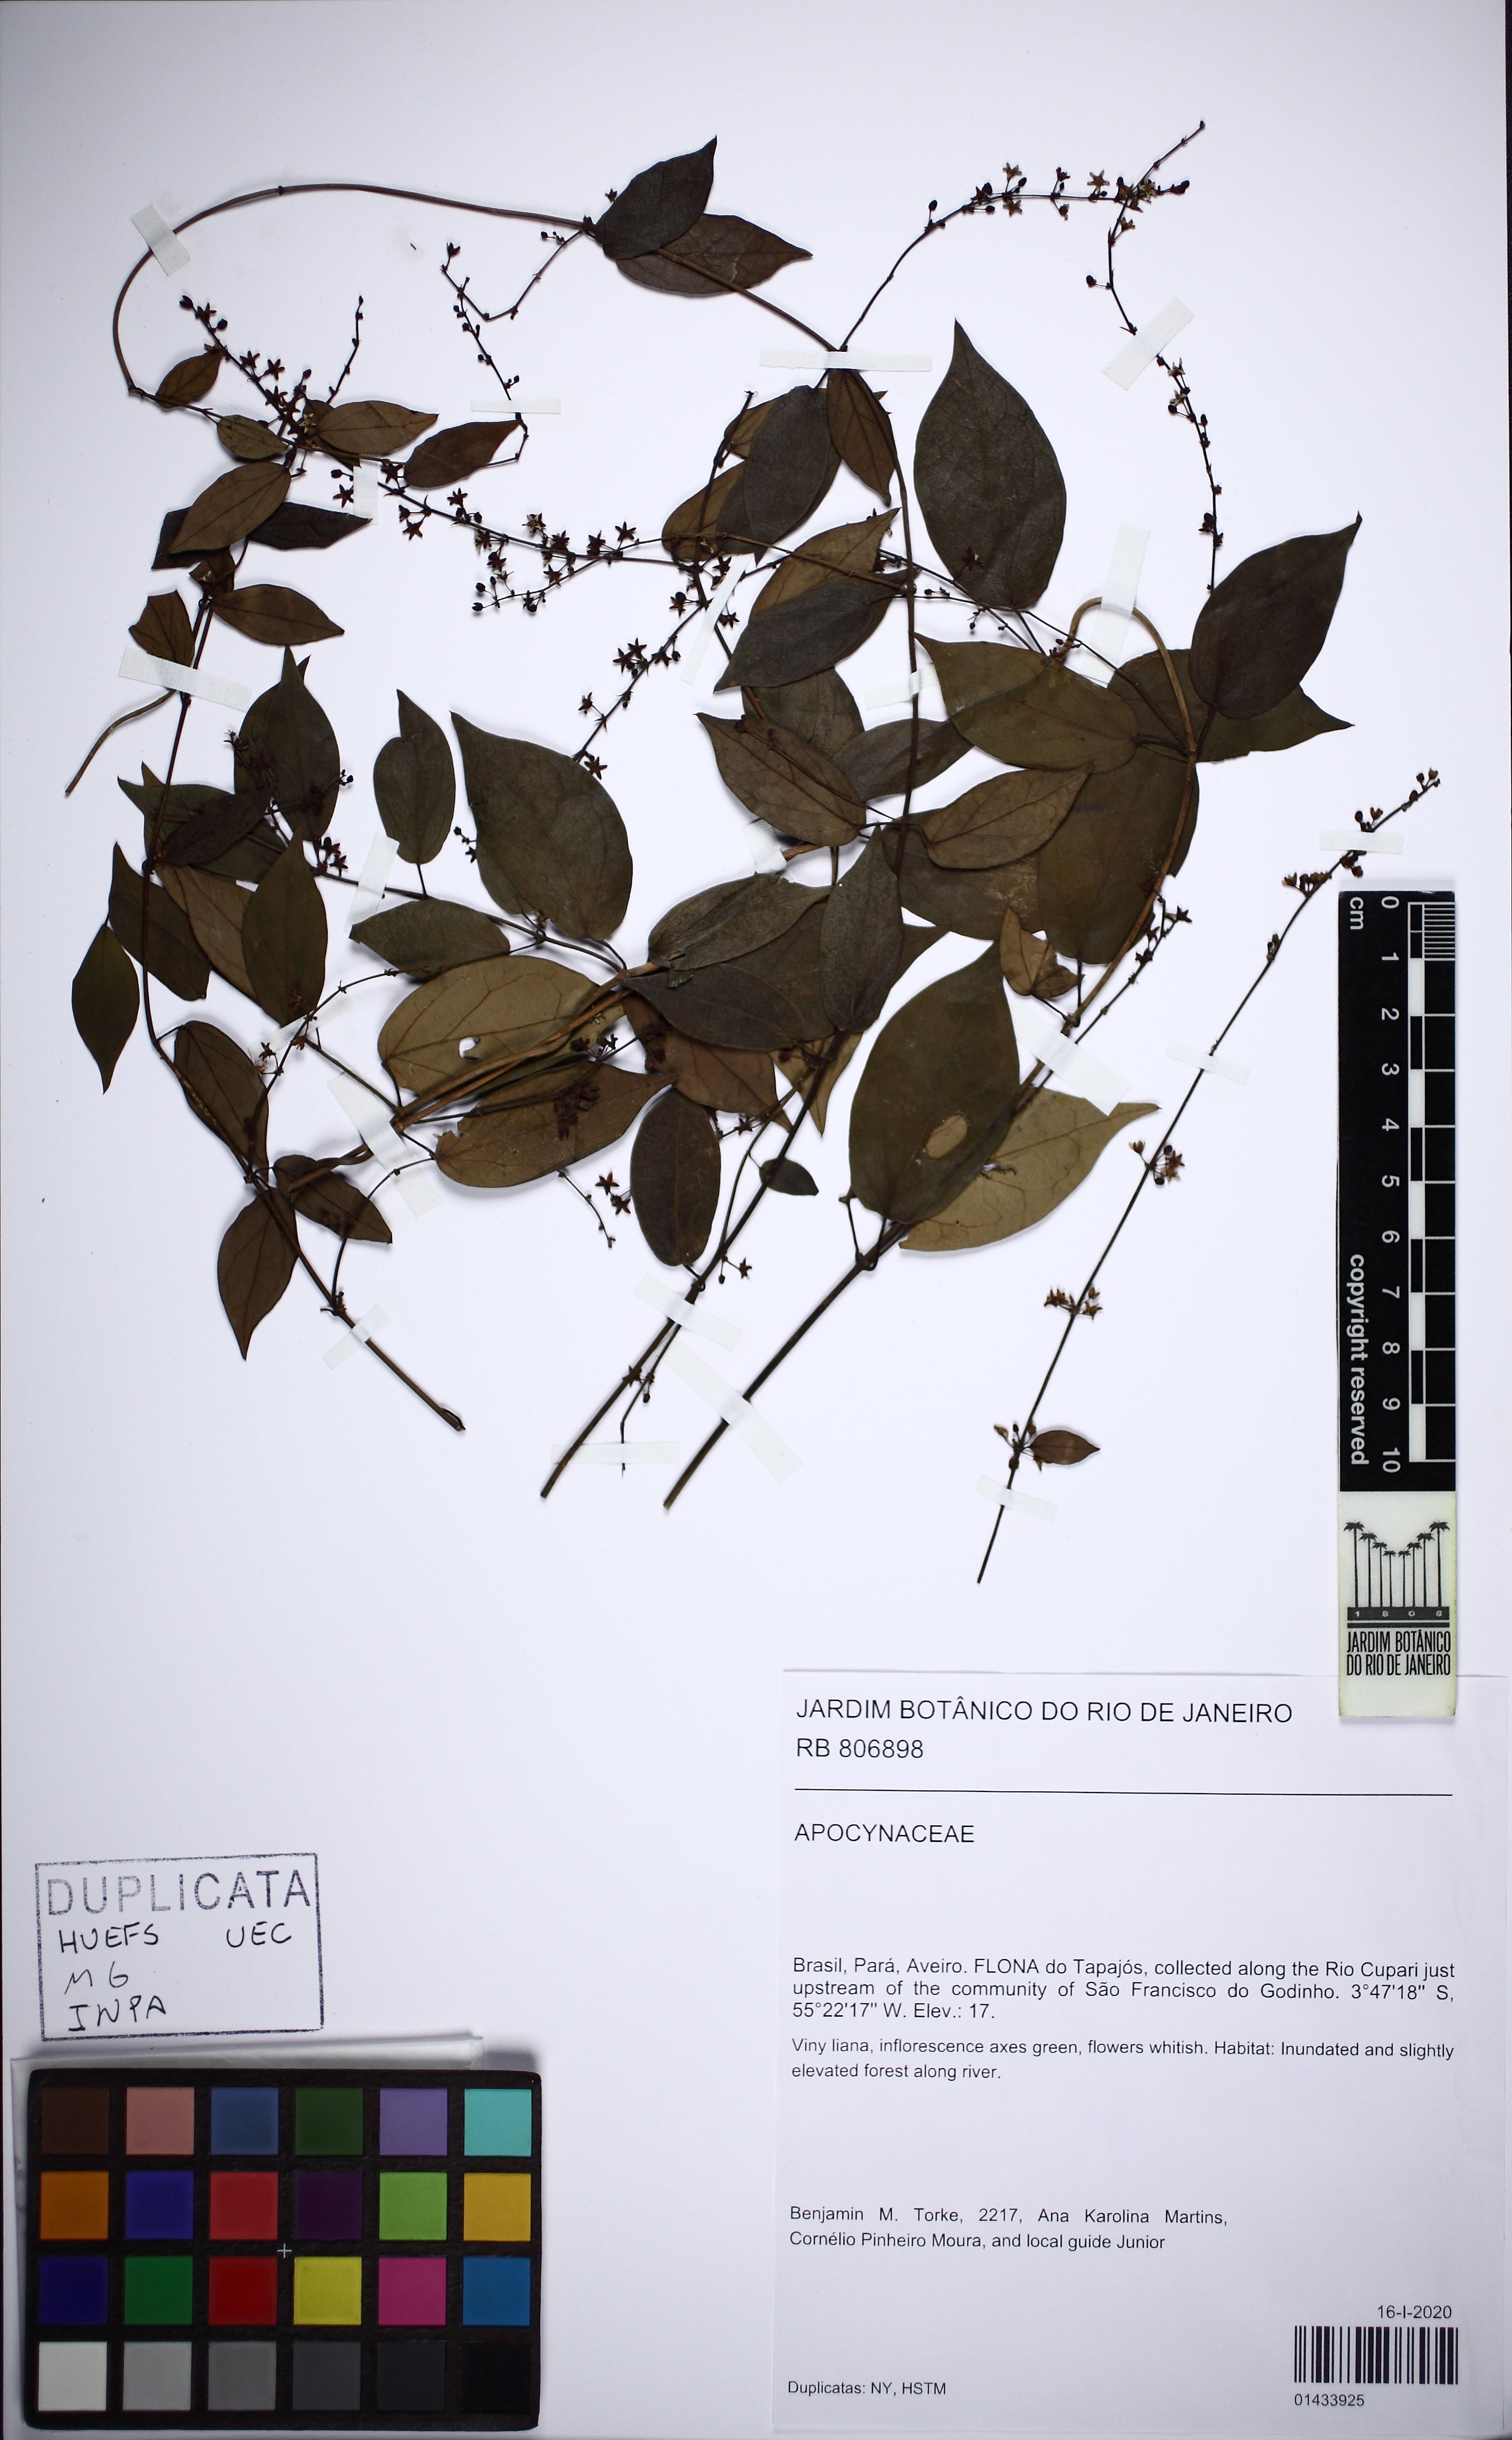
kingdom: Plantae
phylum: Tracheophyta
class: Magnoliopsida
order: Gentianales
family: Apocynaceae
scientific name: Apocynaceae
